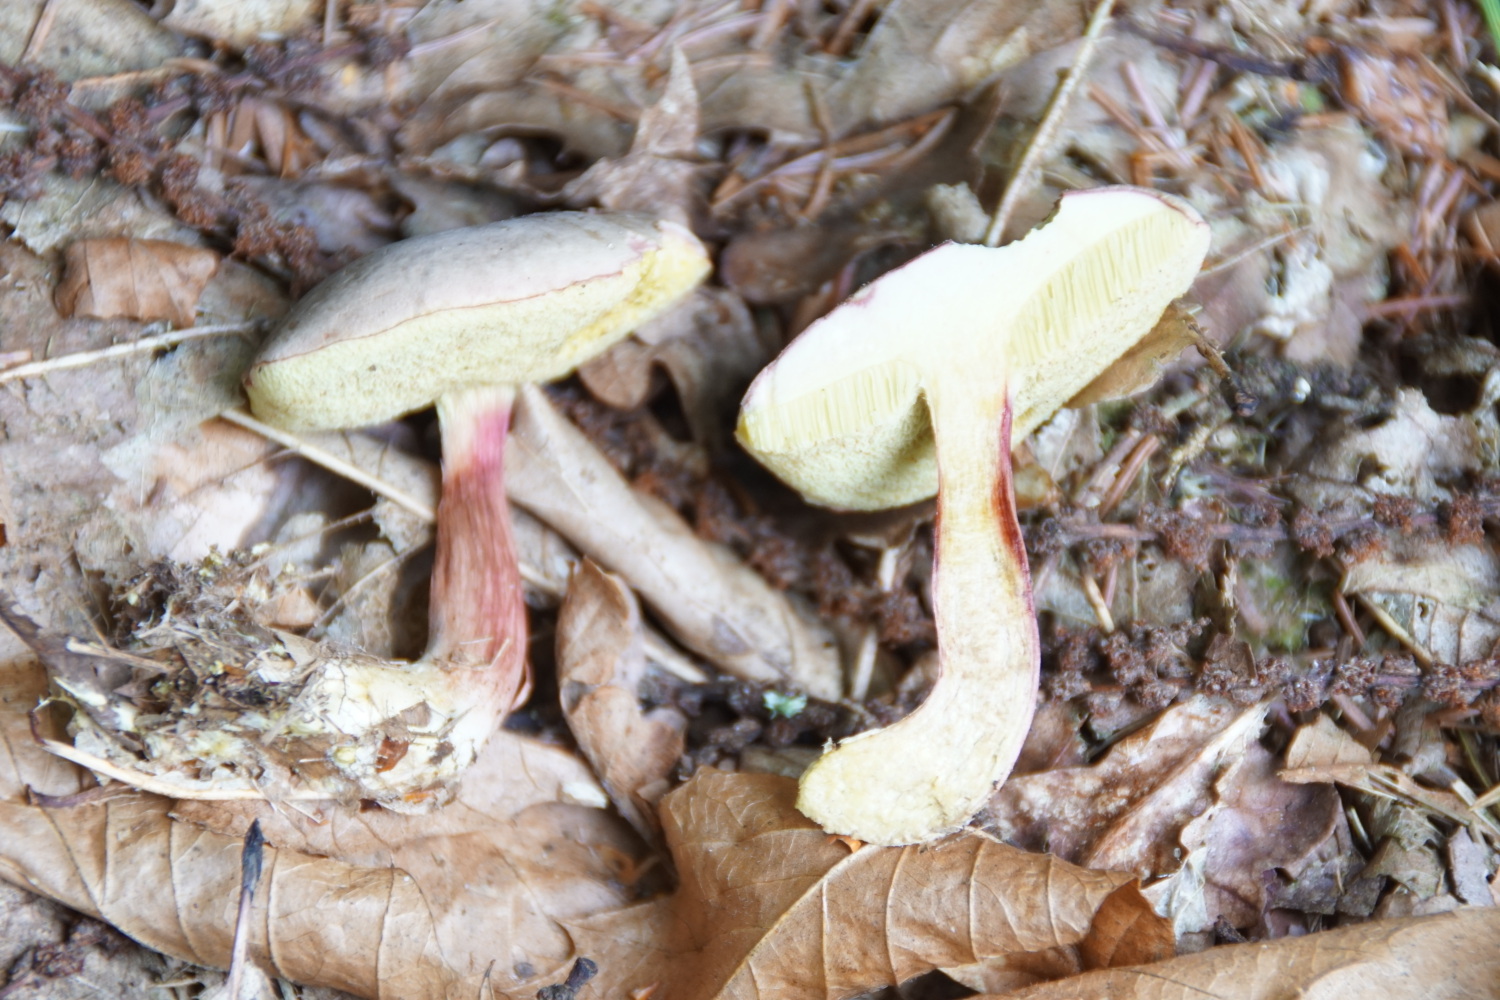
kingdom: Fungi
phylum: Basidiomycota
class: Agaricomycetes
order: Boletales
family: Boletaceae
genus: Xerocomellus
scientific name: Xerocomellus pruinatus
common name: dugget rørhat
